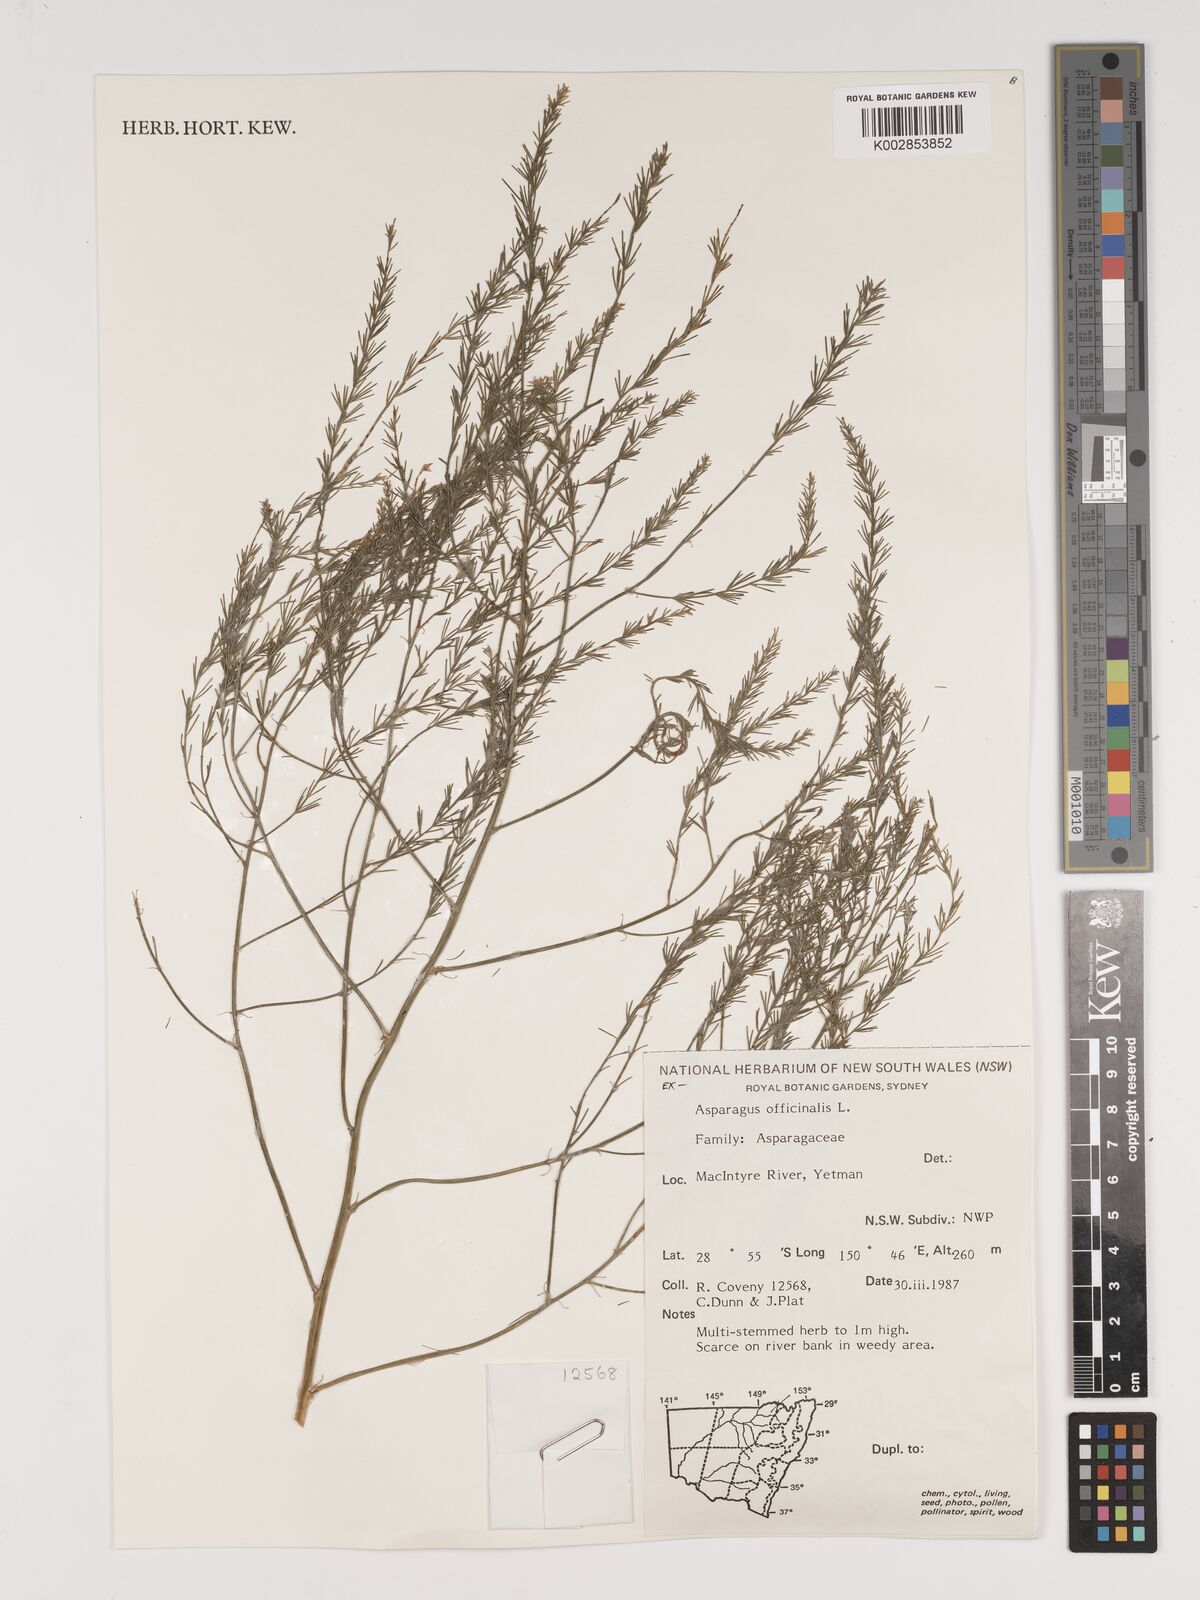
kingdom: Plantae
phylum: Tracheophyta
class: Liliopsida
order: Asparagales
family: Asparagaceae
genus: Asparagus
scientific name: Asparagus officinalis
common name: Garden asparagus
